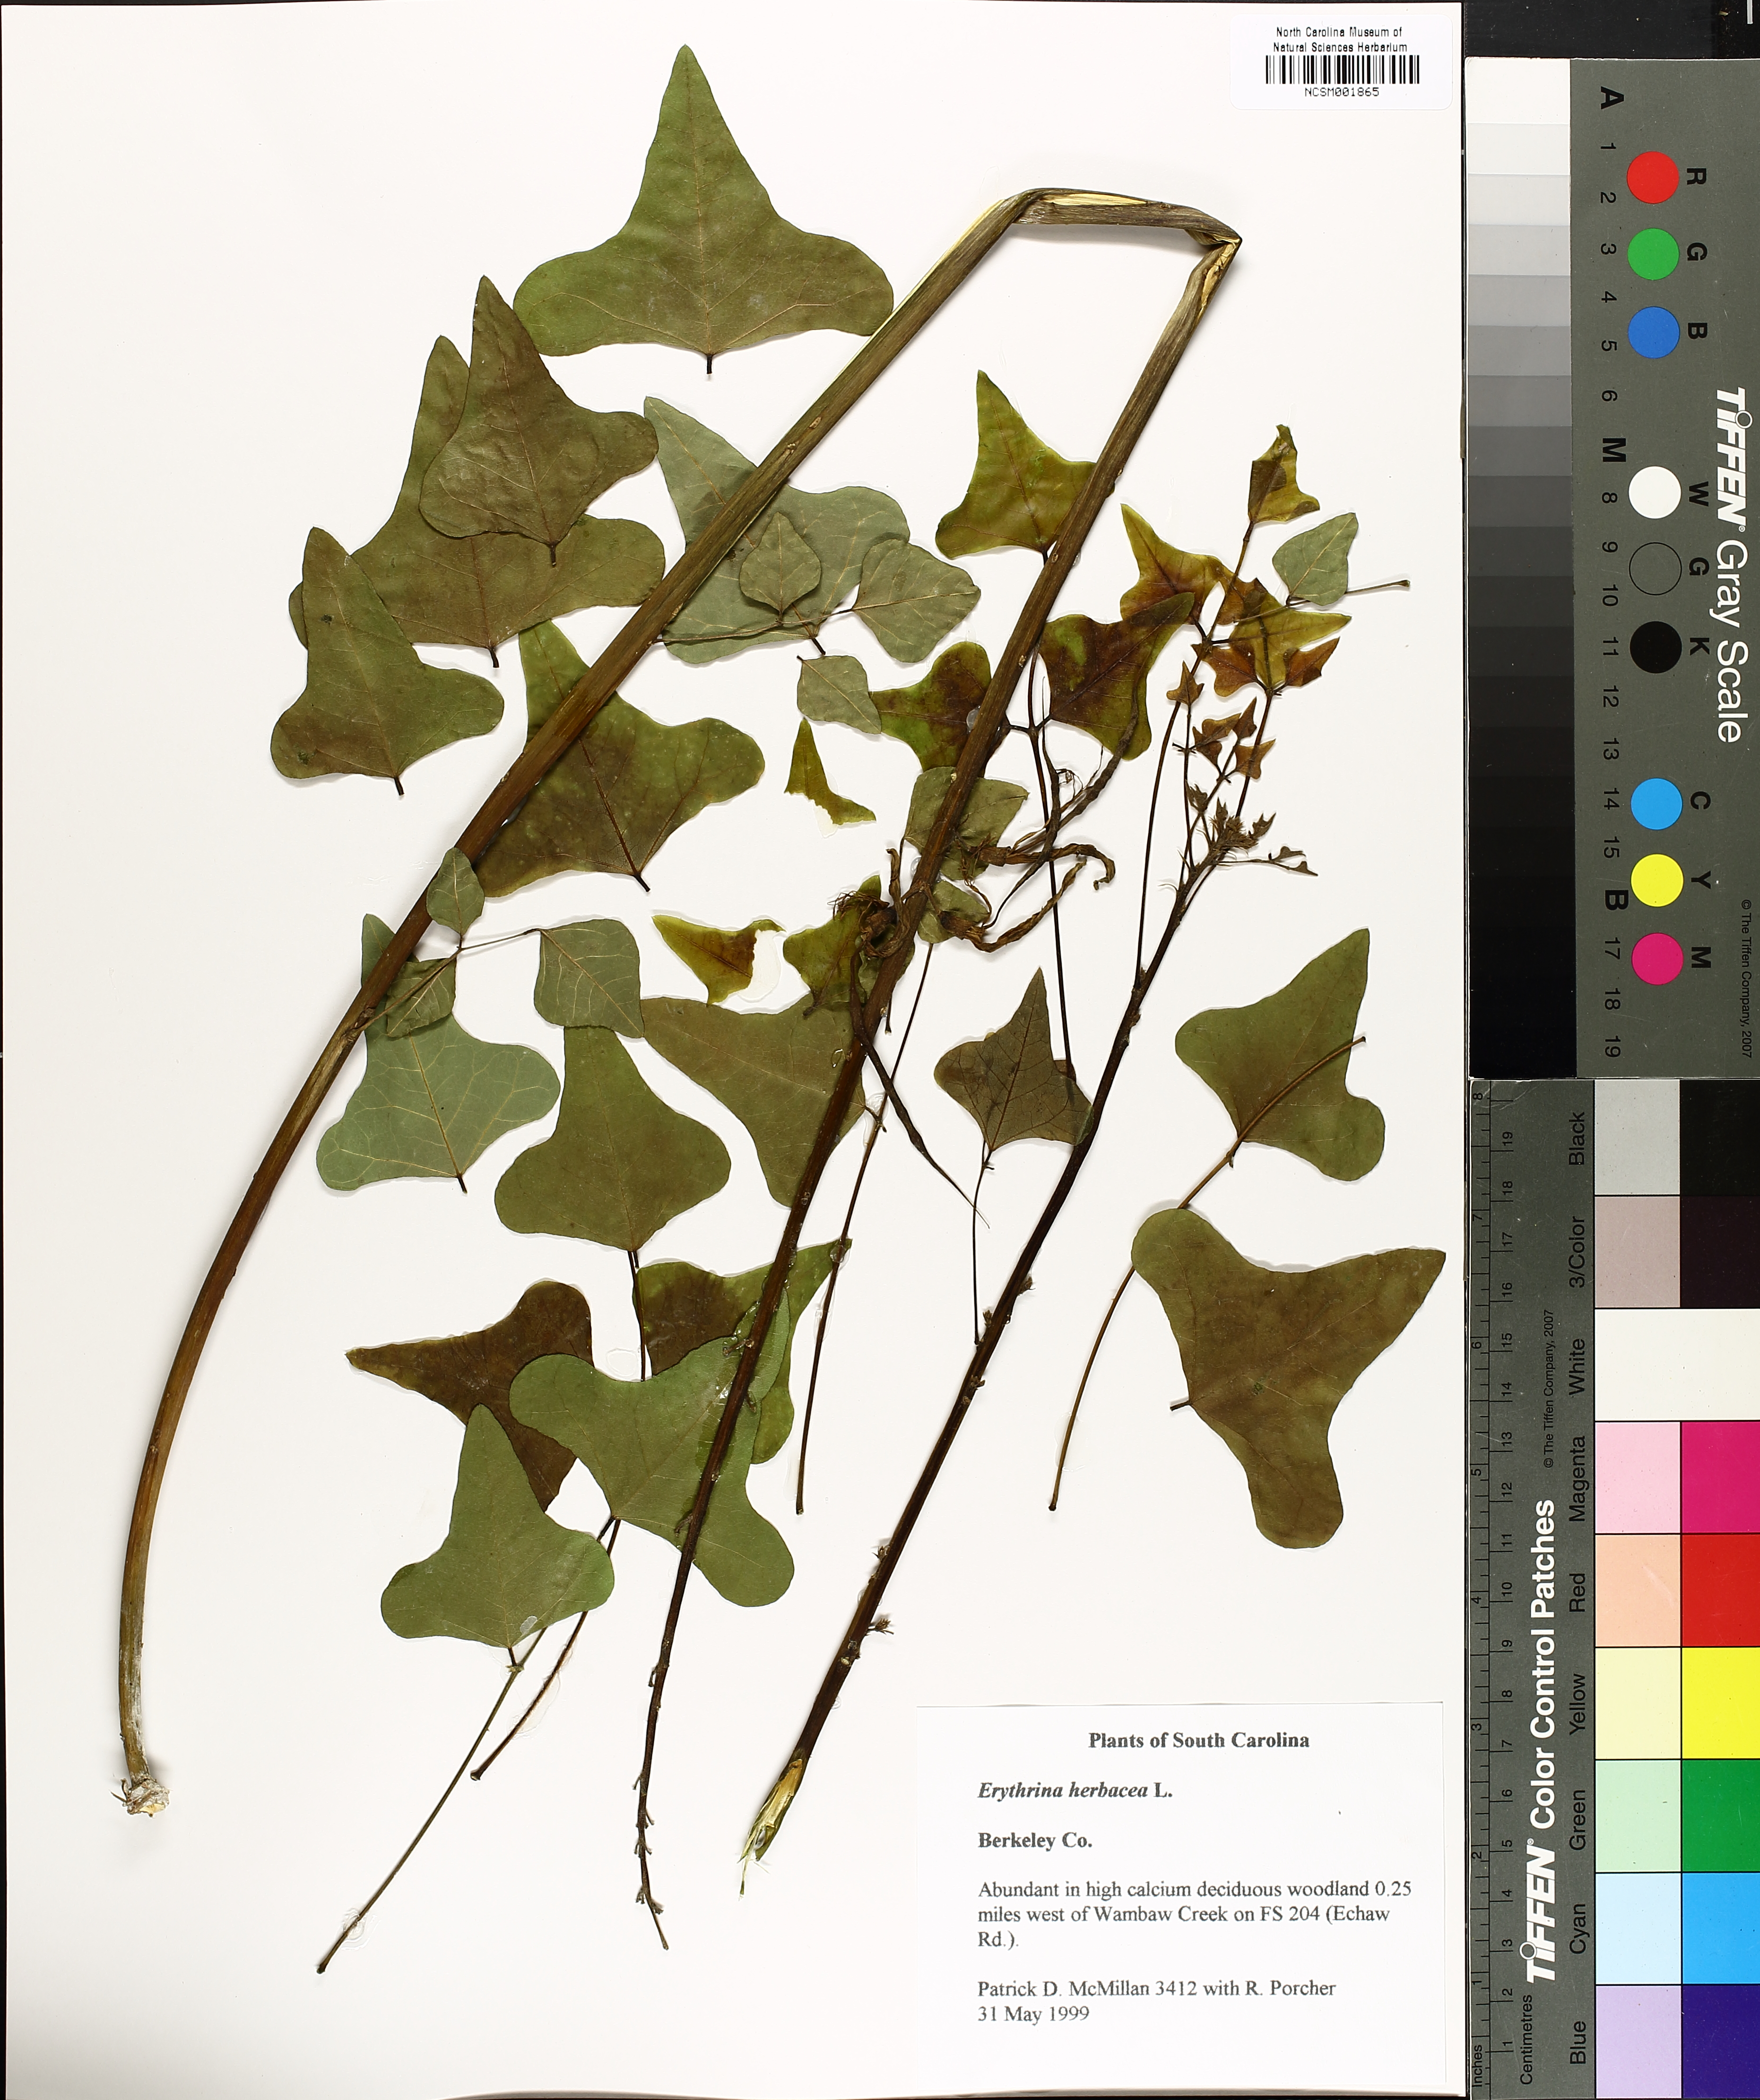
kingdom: Plantae
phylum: Tracheophyta
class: Magnoliopsida
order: Fabales
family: Fabaceae
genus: Erythrina
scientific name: Erythrina herbacea
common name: Coral-bean
